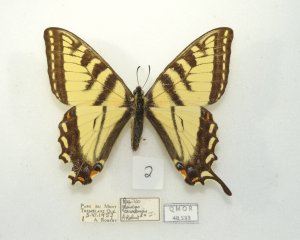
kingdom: Animalia
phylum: Arthropoda
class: Insecta
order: Lepidoptera
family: Papilionidae
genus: Pterourus
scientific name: Pterourus canadensis
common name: Canadian Tiger Swallowtail
